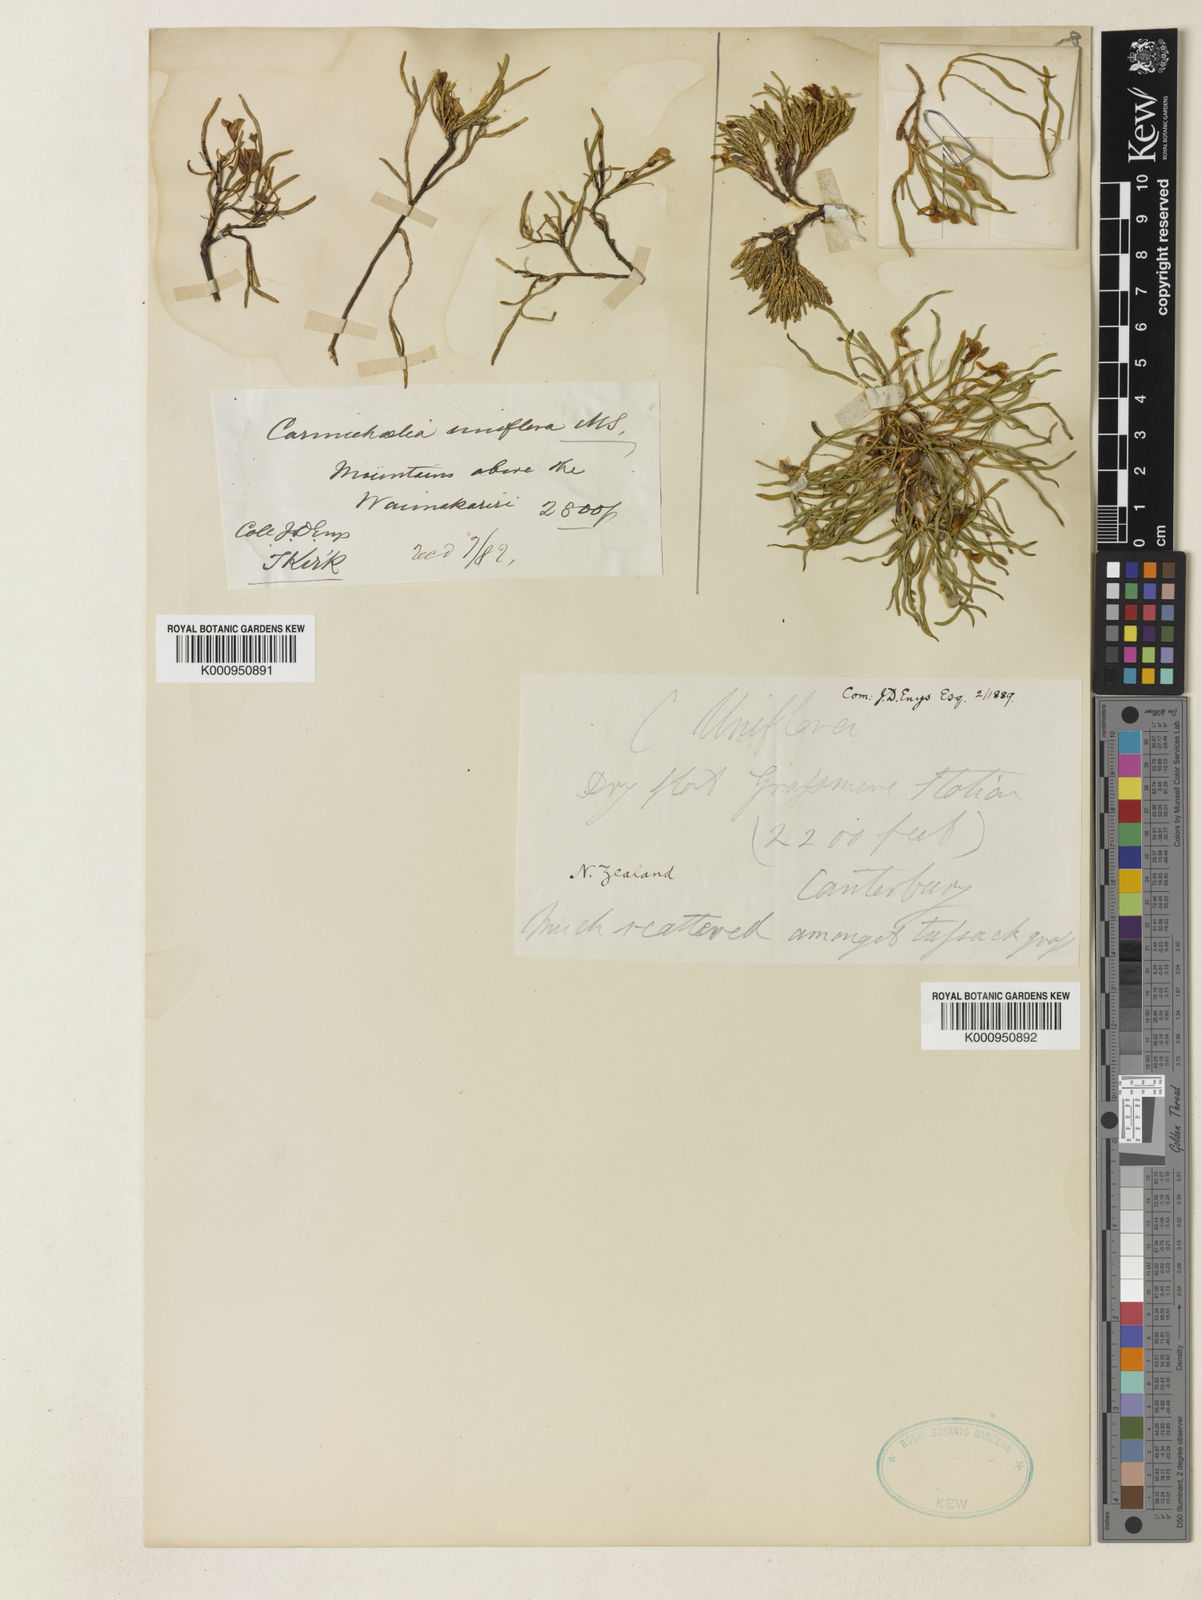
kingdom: Plantae
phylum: Tracheophyta
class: Magnoliopsida
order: Fabales
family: Fabaceae
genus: Carmichaelia
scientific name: Carmichaelia uniflora
